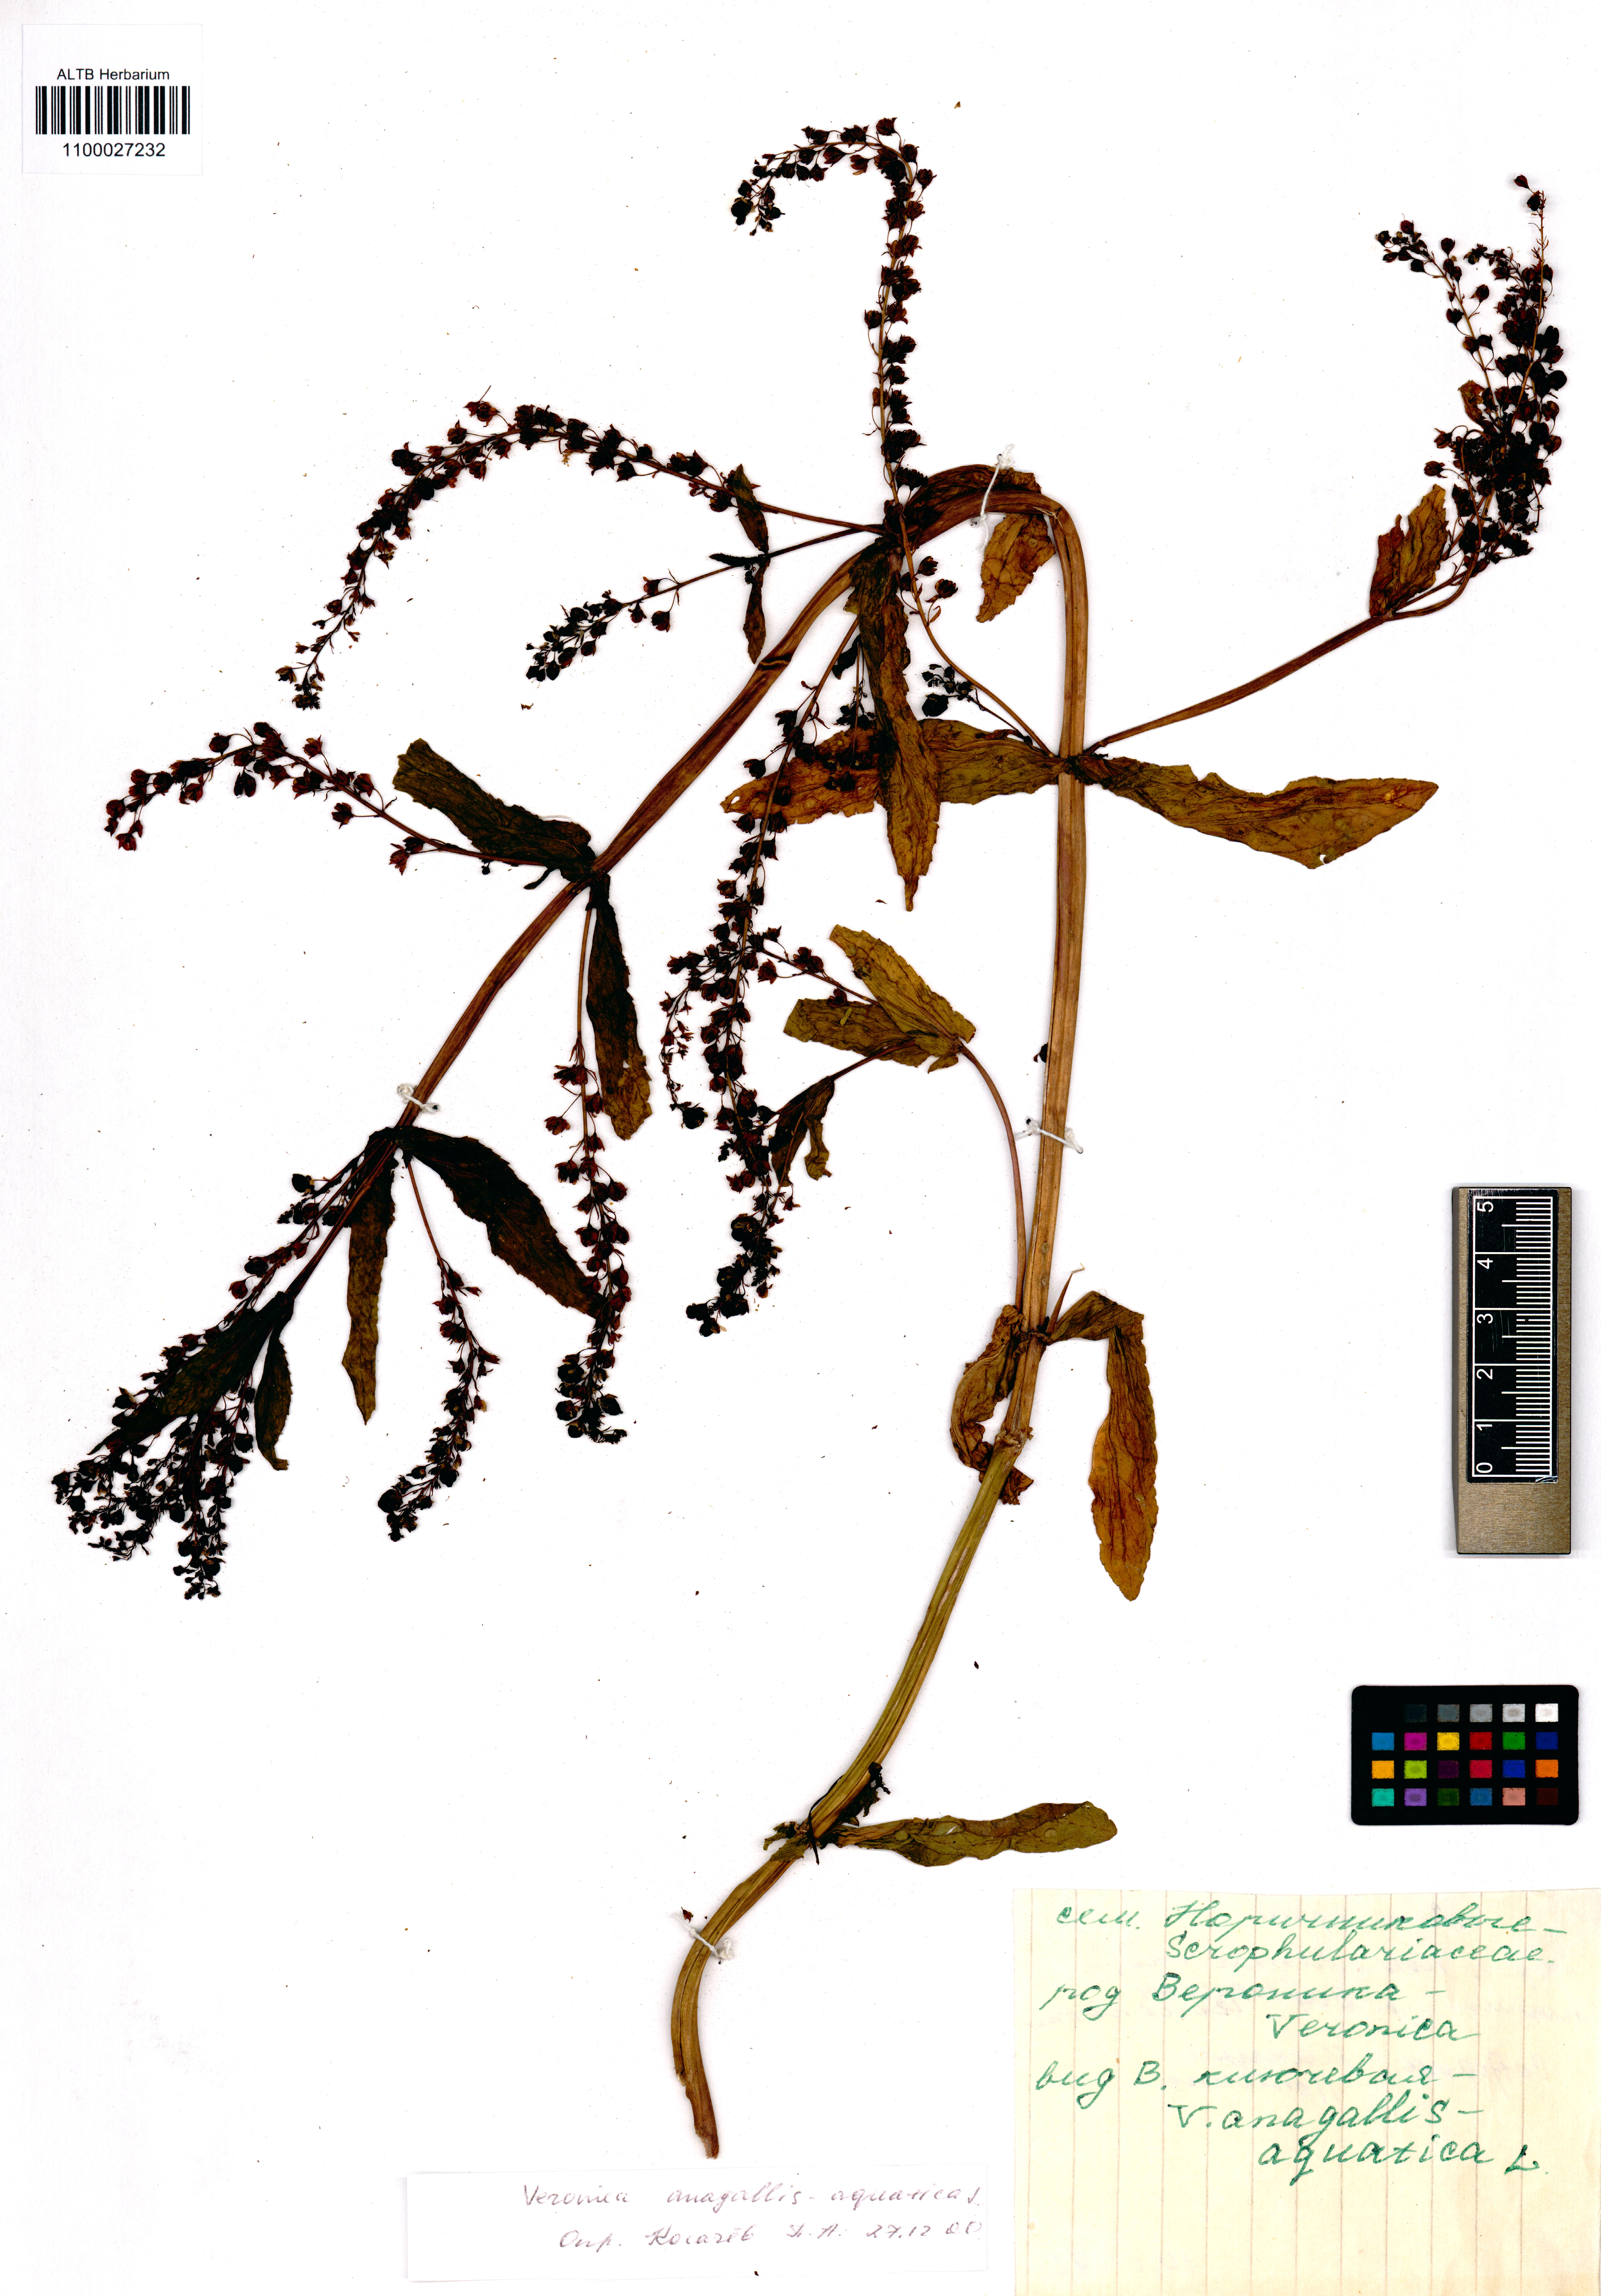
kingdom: Plantae
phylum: Tracheophyta
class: Magnoliopsida
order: Lamiales
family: Plantaginaceae
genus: Veronica
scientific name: Veronica anagallis-aquatica
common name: Water speedwell
